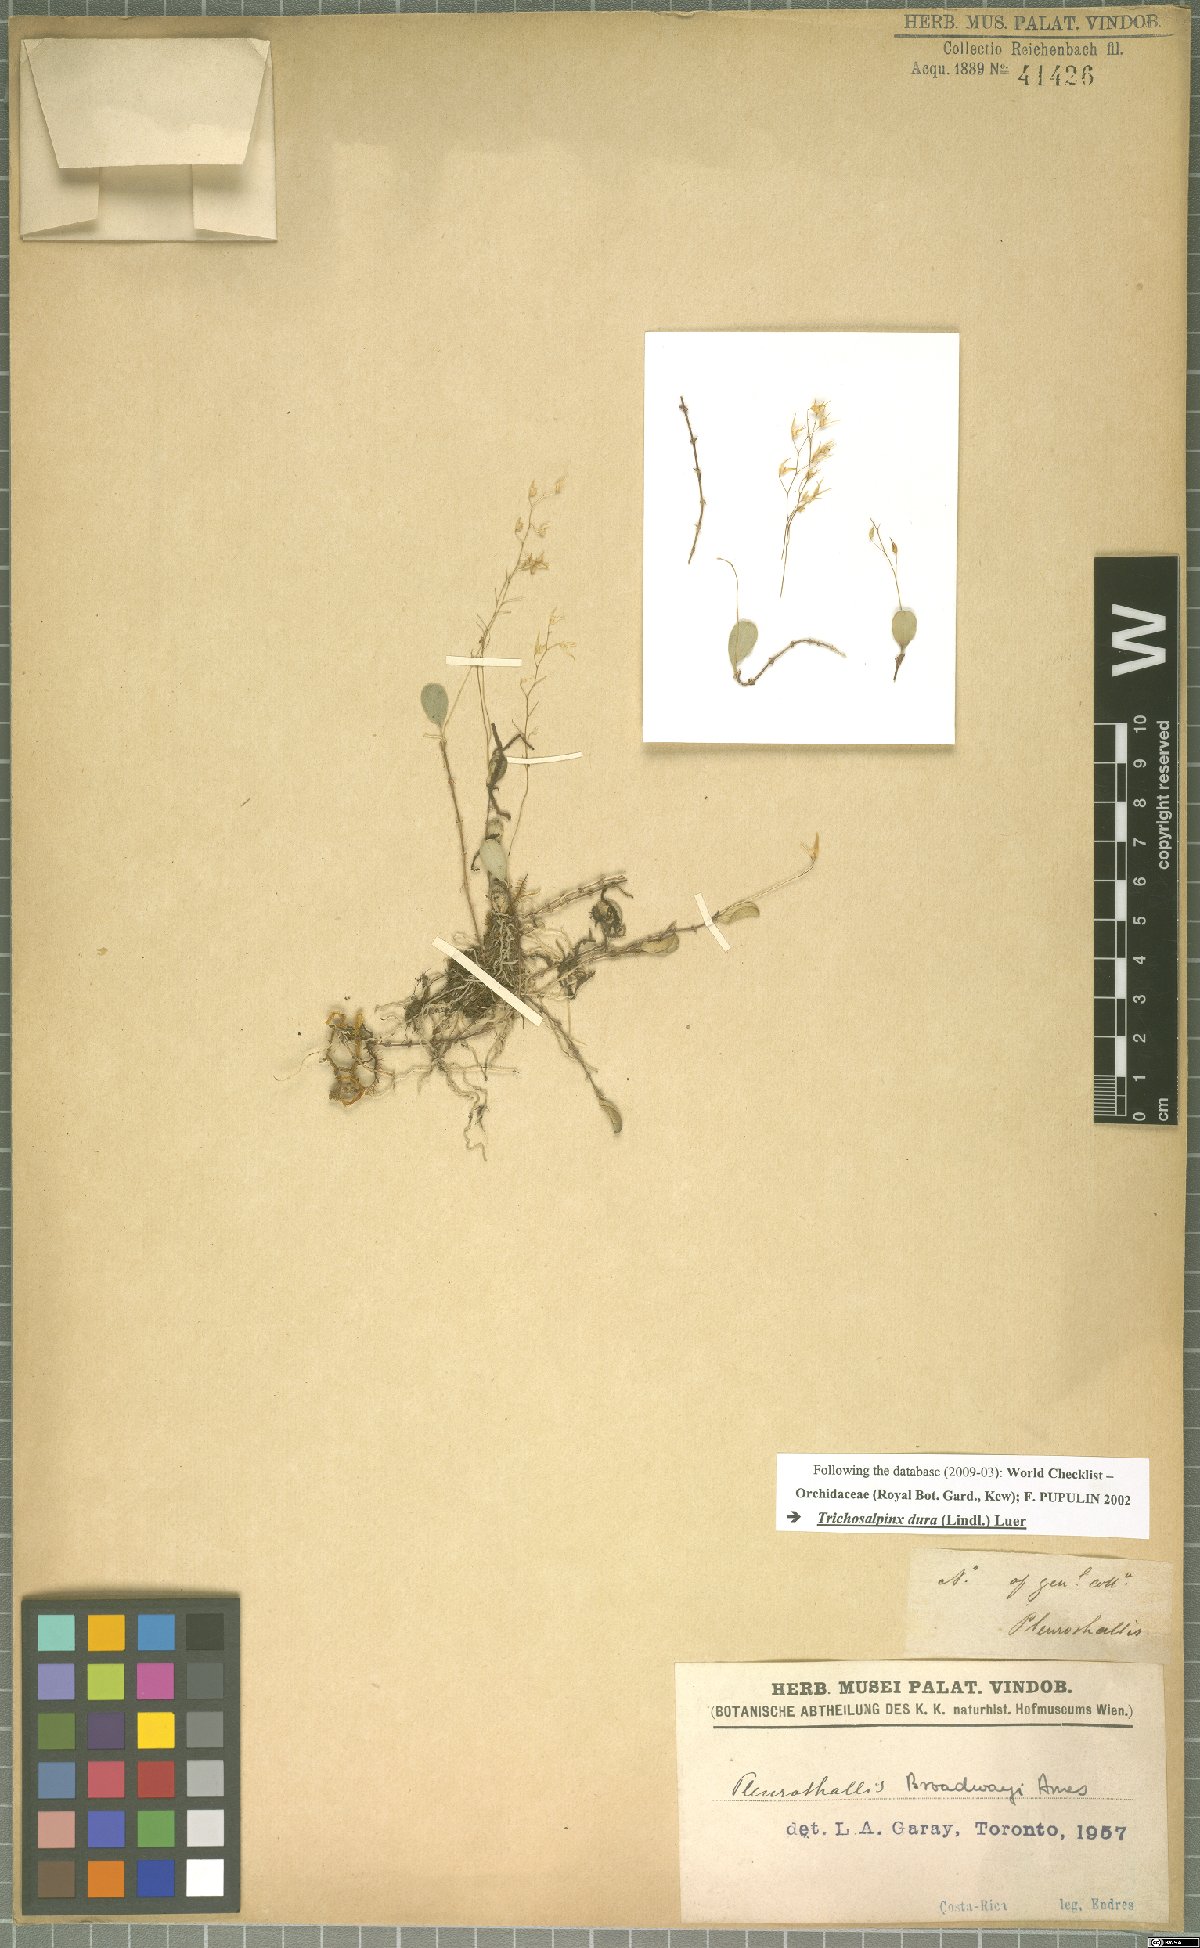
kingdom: Plantae
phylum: Tracheophyta
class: Liliopsida
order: Asparagales
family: Orchidaceae
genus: Trichosalpinx
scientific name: Trichosalpinx dura
